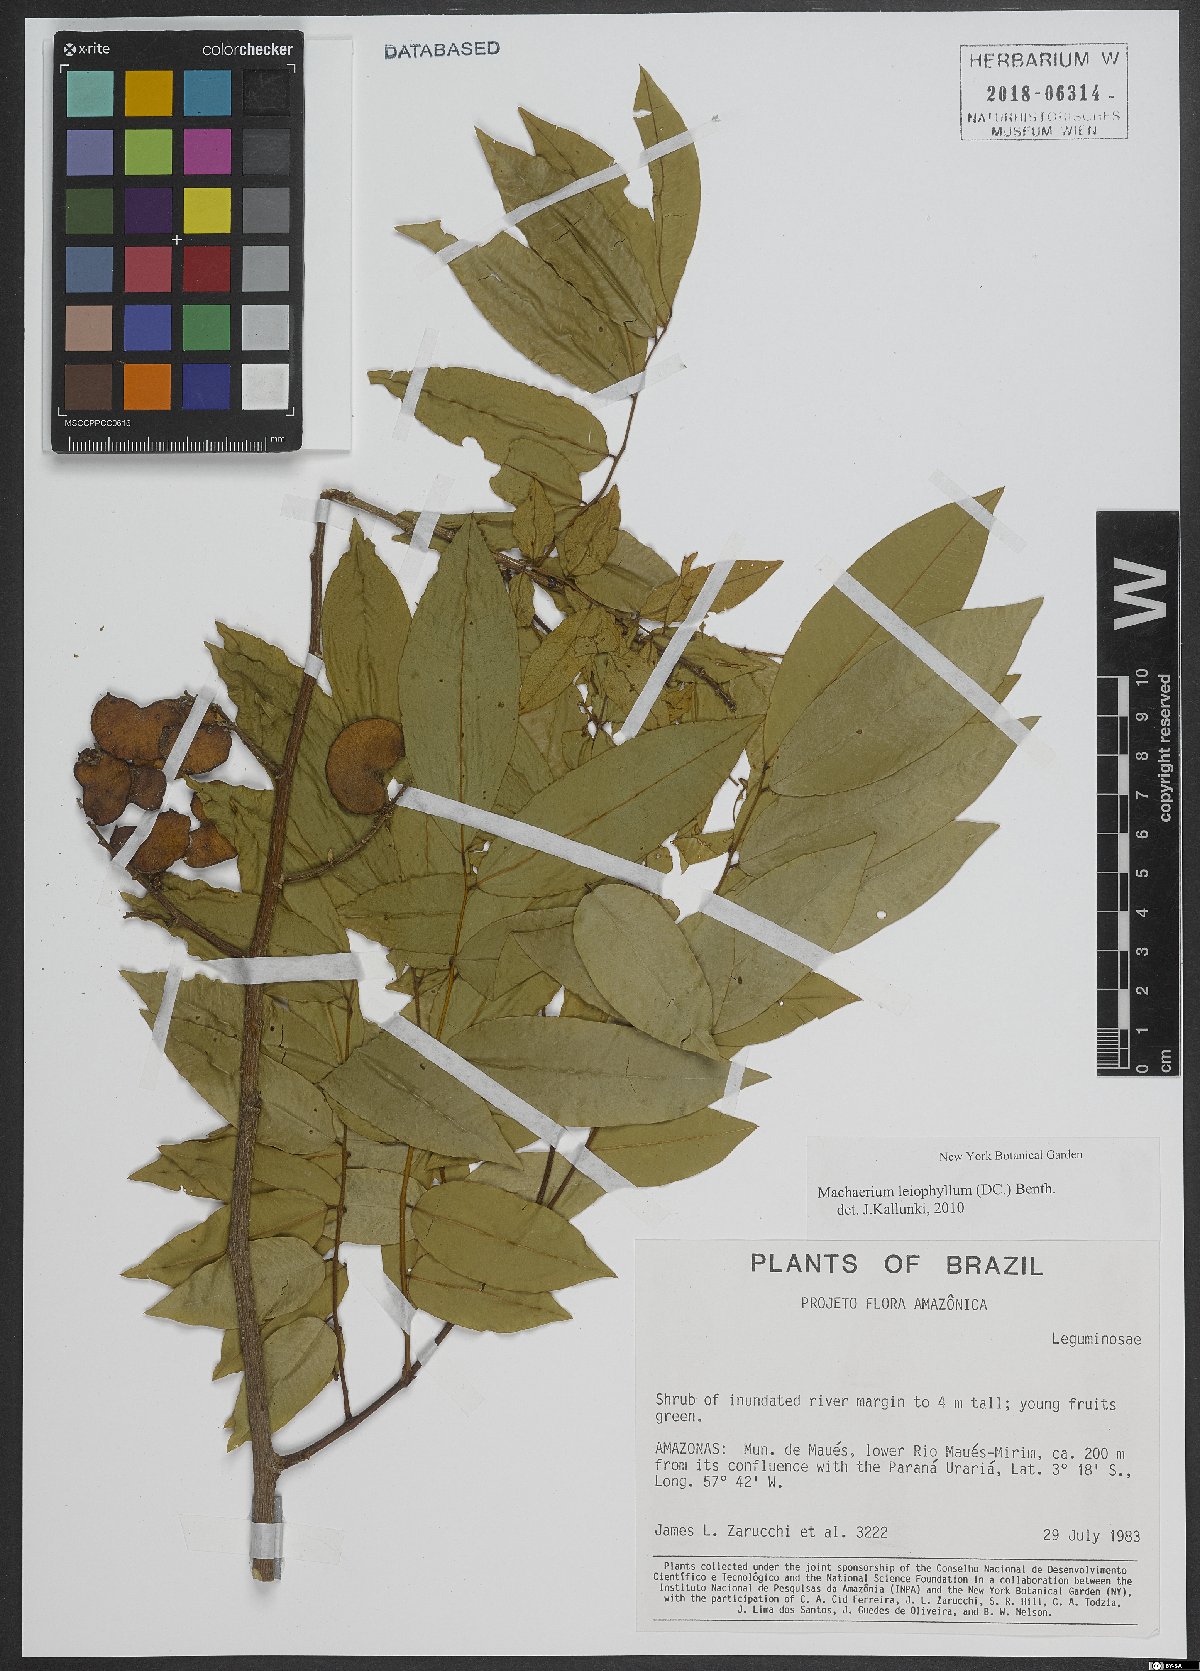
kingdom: Plantae
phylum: Tracheophyta
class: Magnoliopsida
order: Fabales
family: Fabaceae
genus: Machaerium
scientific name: Machaerium leiophyllum
